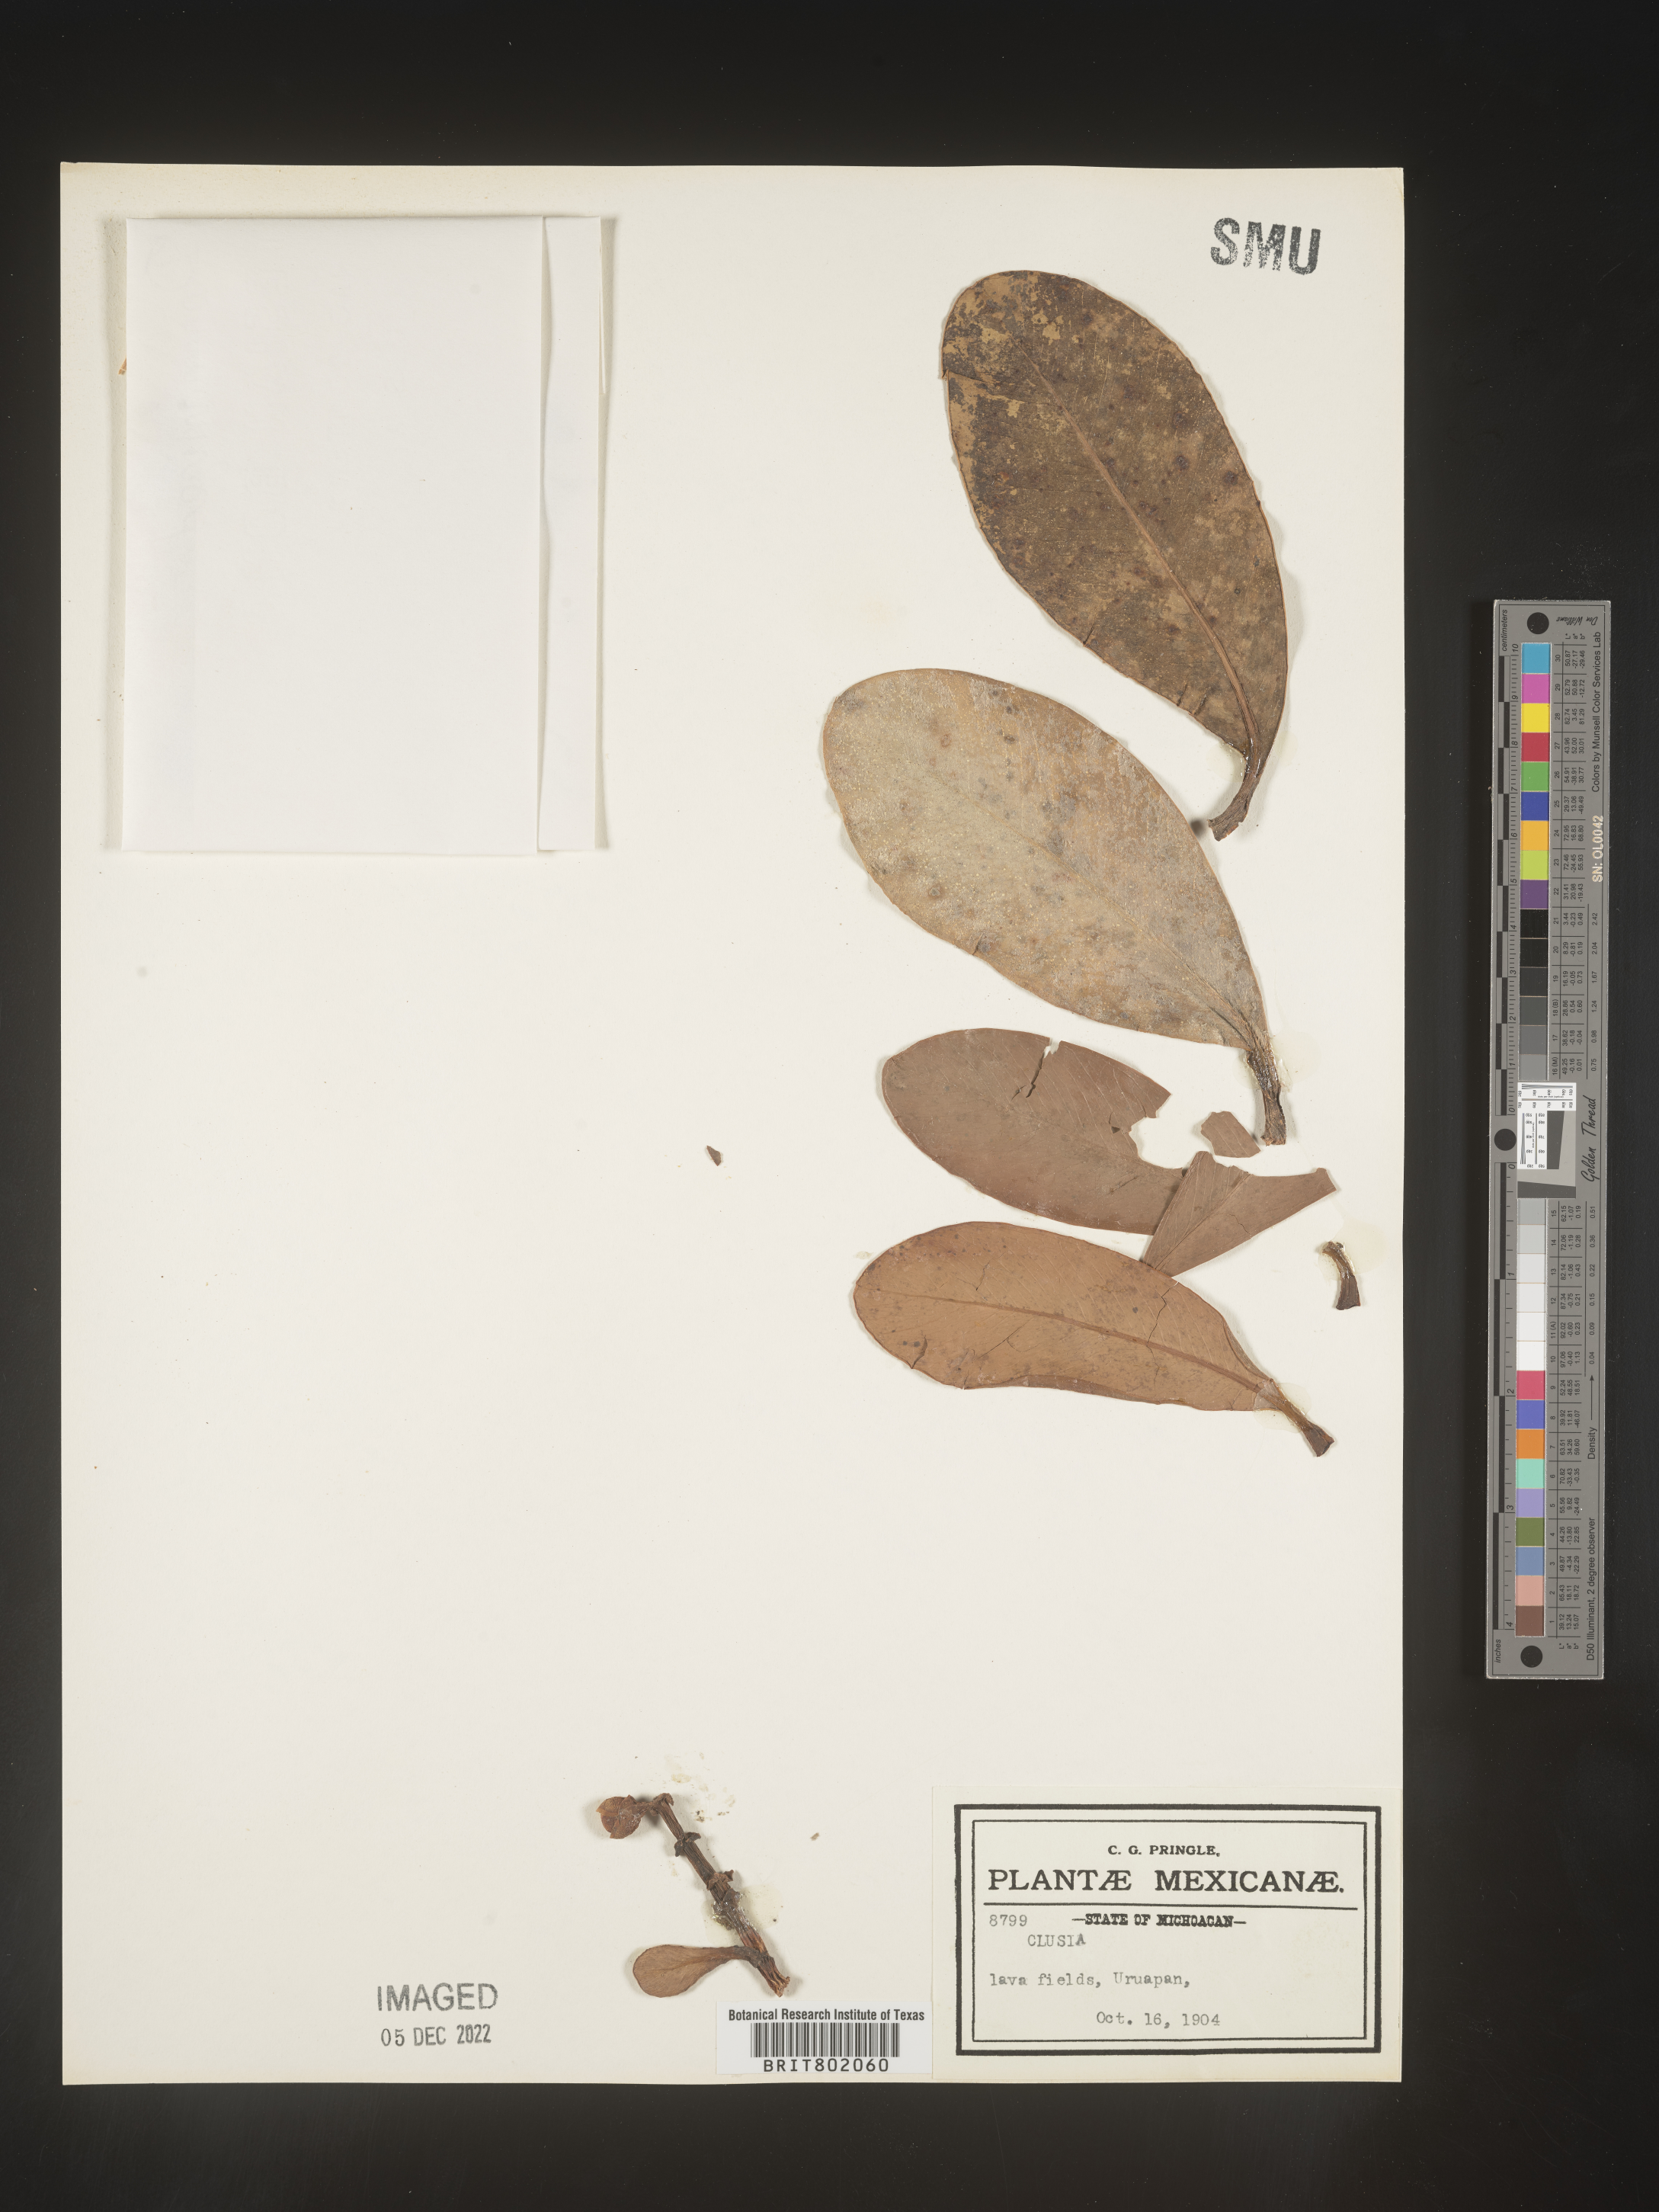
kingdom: Plantae
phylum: Tracheophyta
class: Magnoliopsida
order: Malpighiales
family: Clusiaceae
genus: Clusia
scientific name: Clusia
